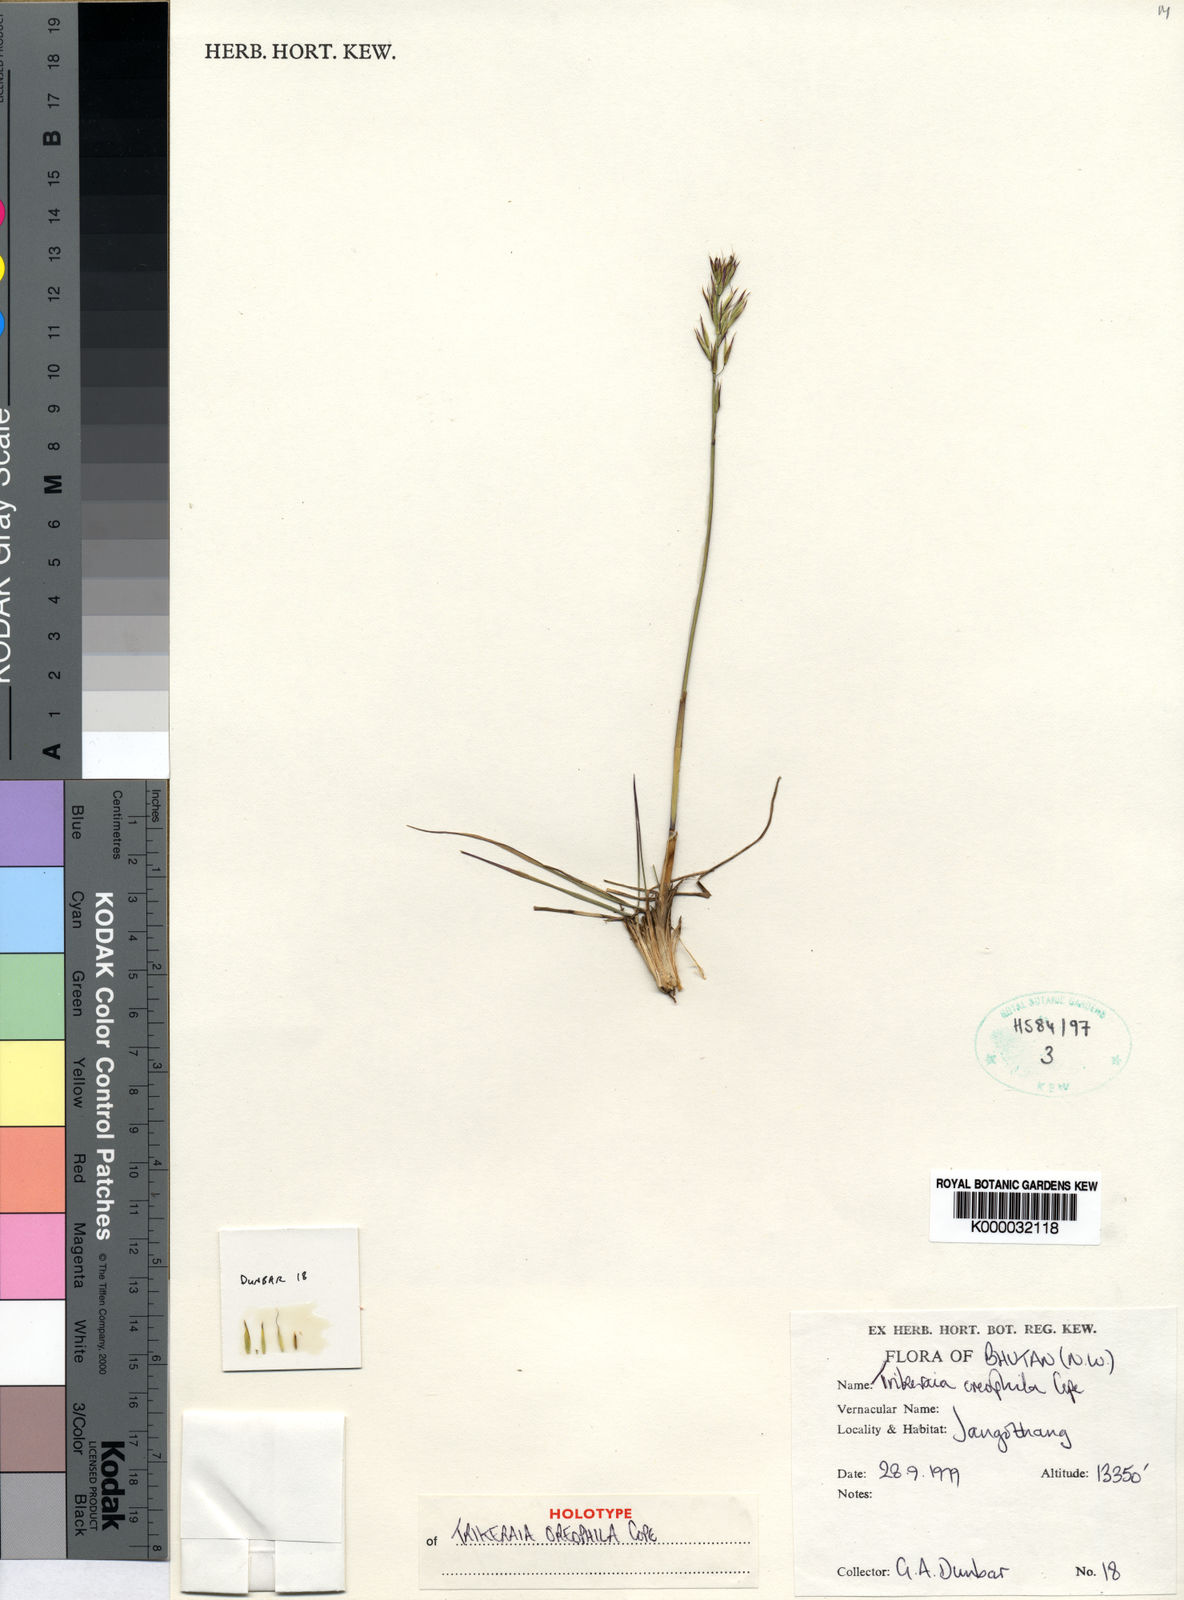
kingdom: Plantae
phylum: Tracheophyta
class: Liliopsida
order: Poales
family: Poaceae
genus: Sinochasea
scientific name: Sinochasea trigyna
